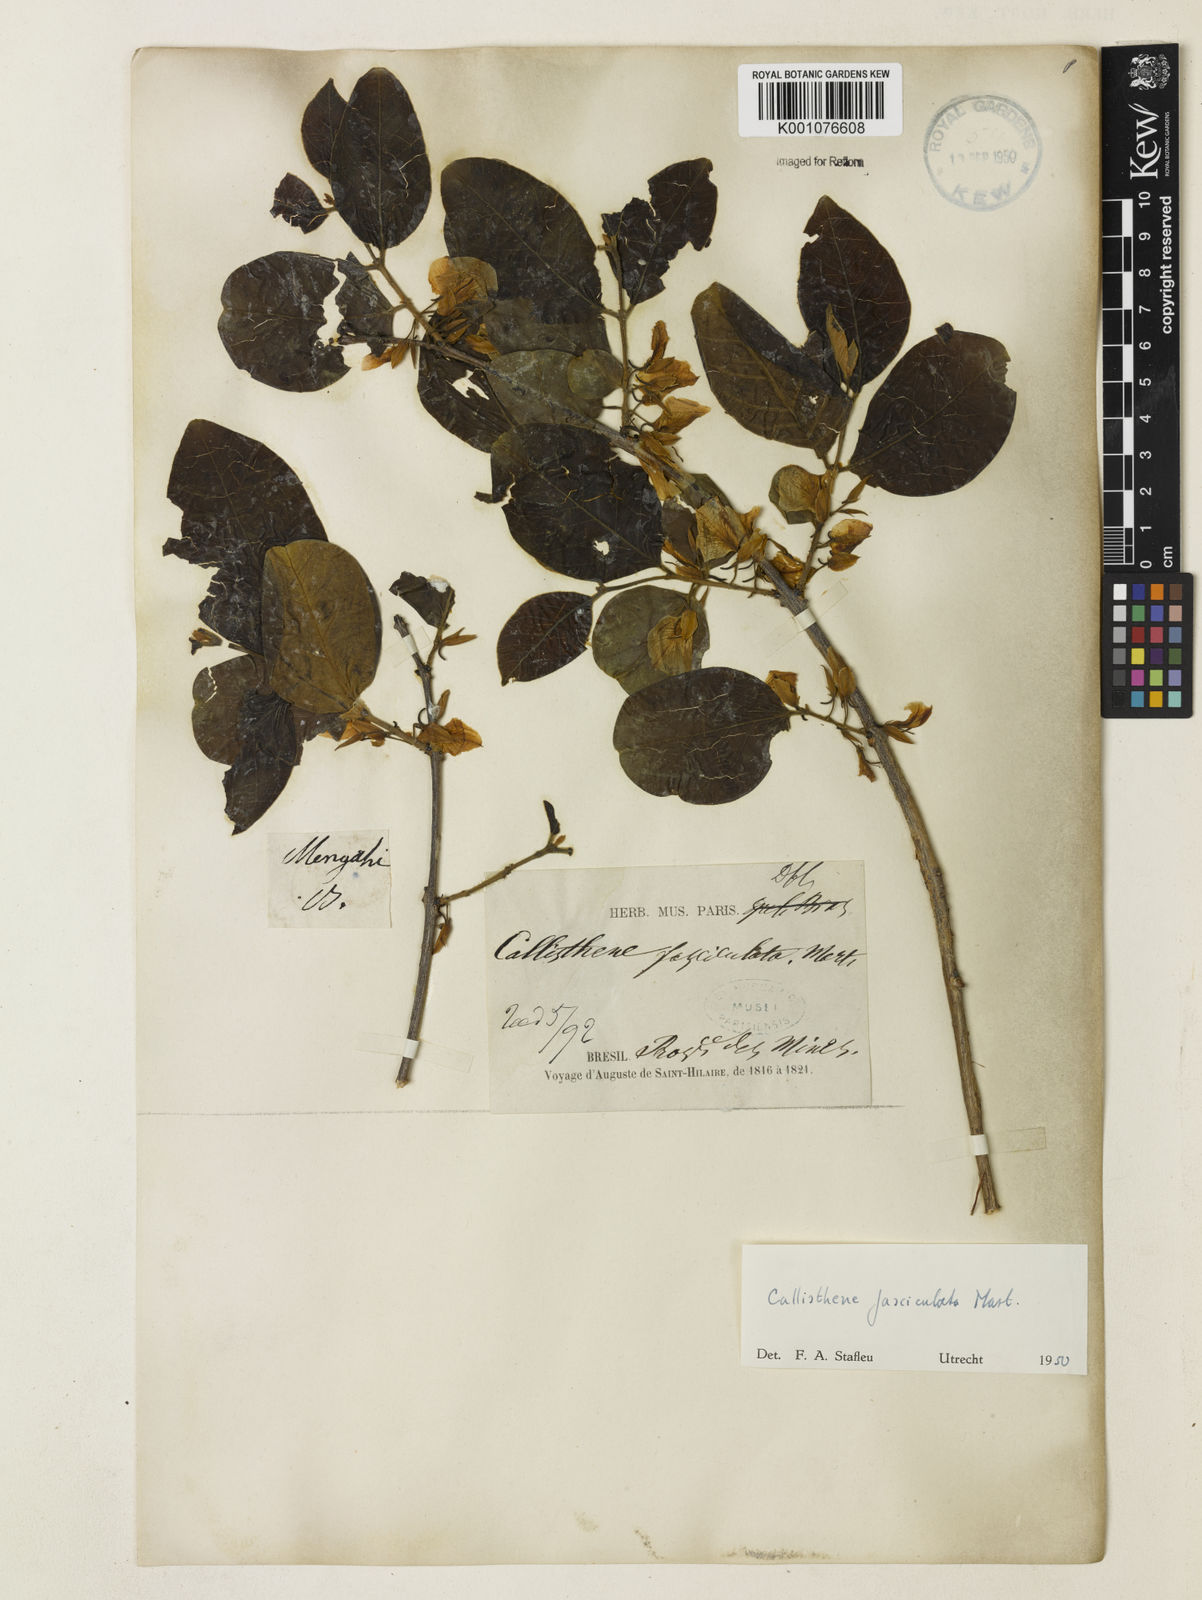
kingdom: Plantae
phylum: Tracheophyta
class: Magnoliopsida
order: Myrtales
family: Vochysiaceae
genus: Callisthene
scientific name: Callisthene fasciculata
